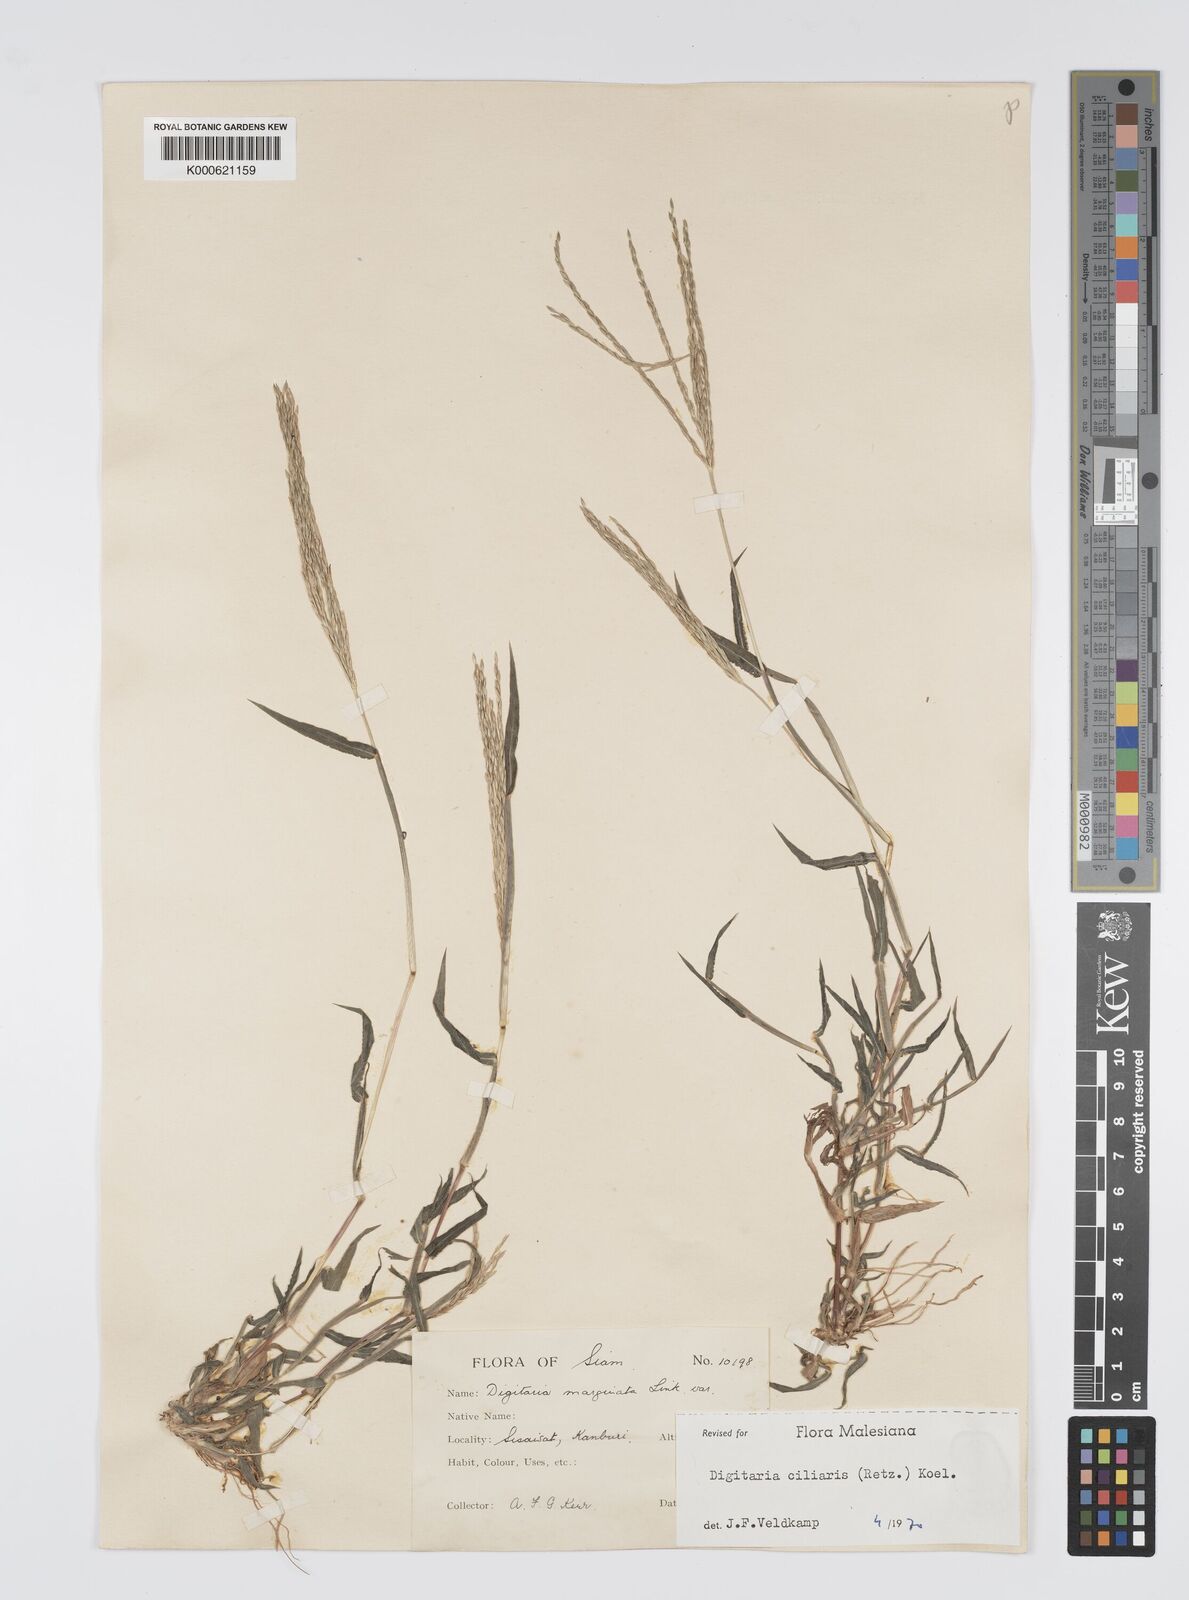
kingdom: Plantae
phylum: Tracheophyta
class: Liliopsida
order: Poales
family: Poaceae
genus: Digitaria
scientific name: Digitaria ciliaris
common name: Tropical finger-grass
